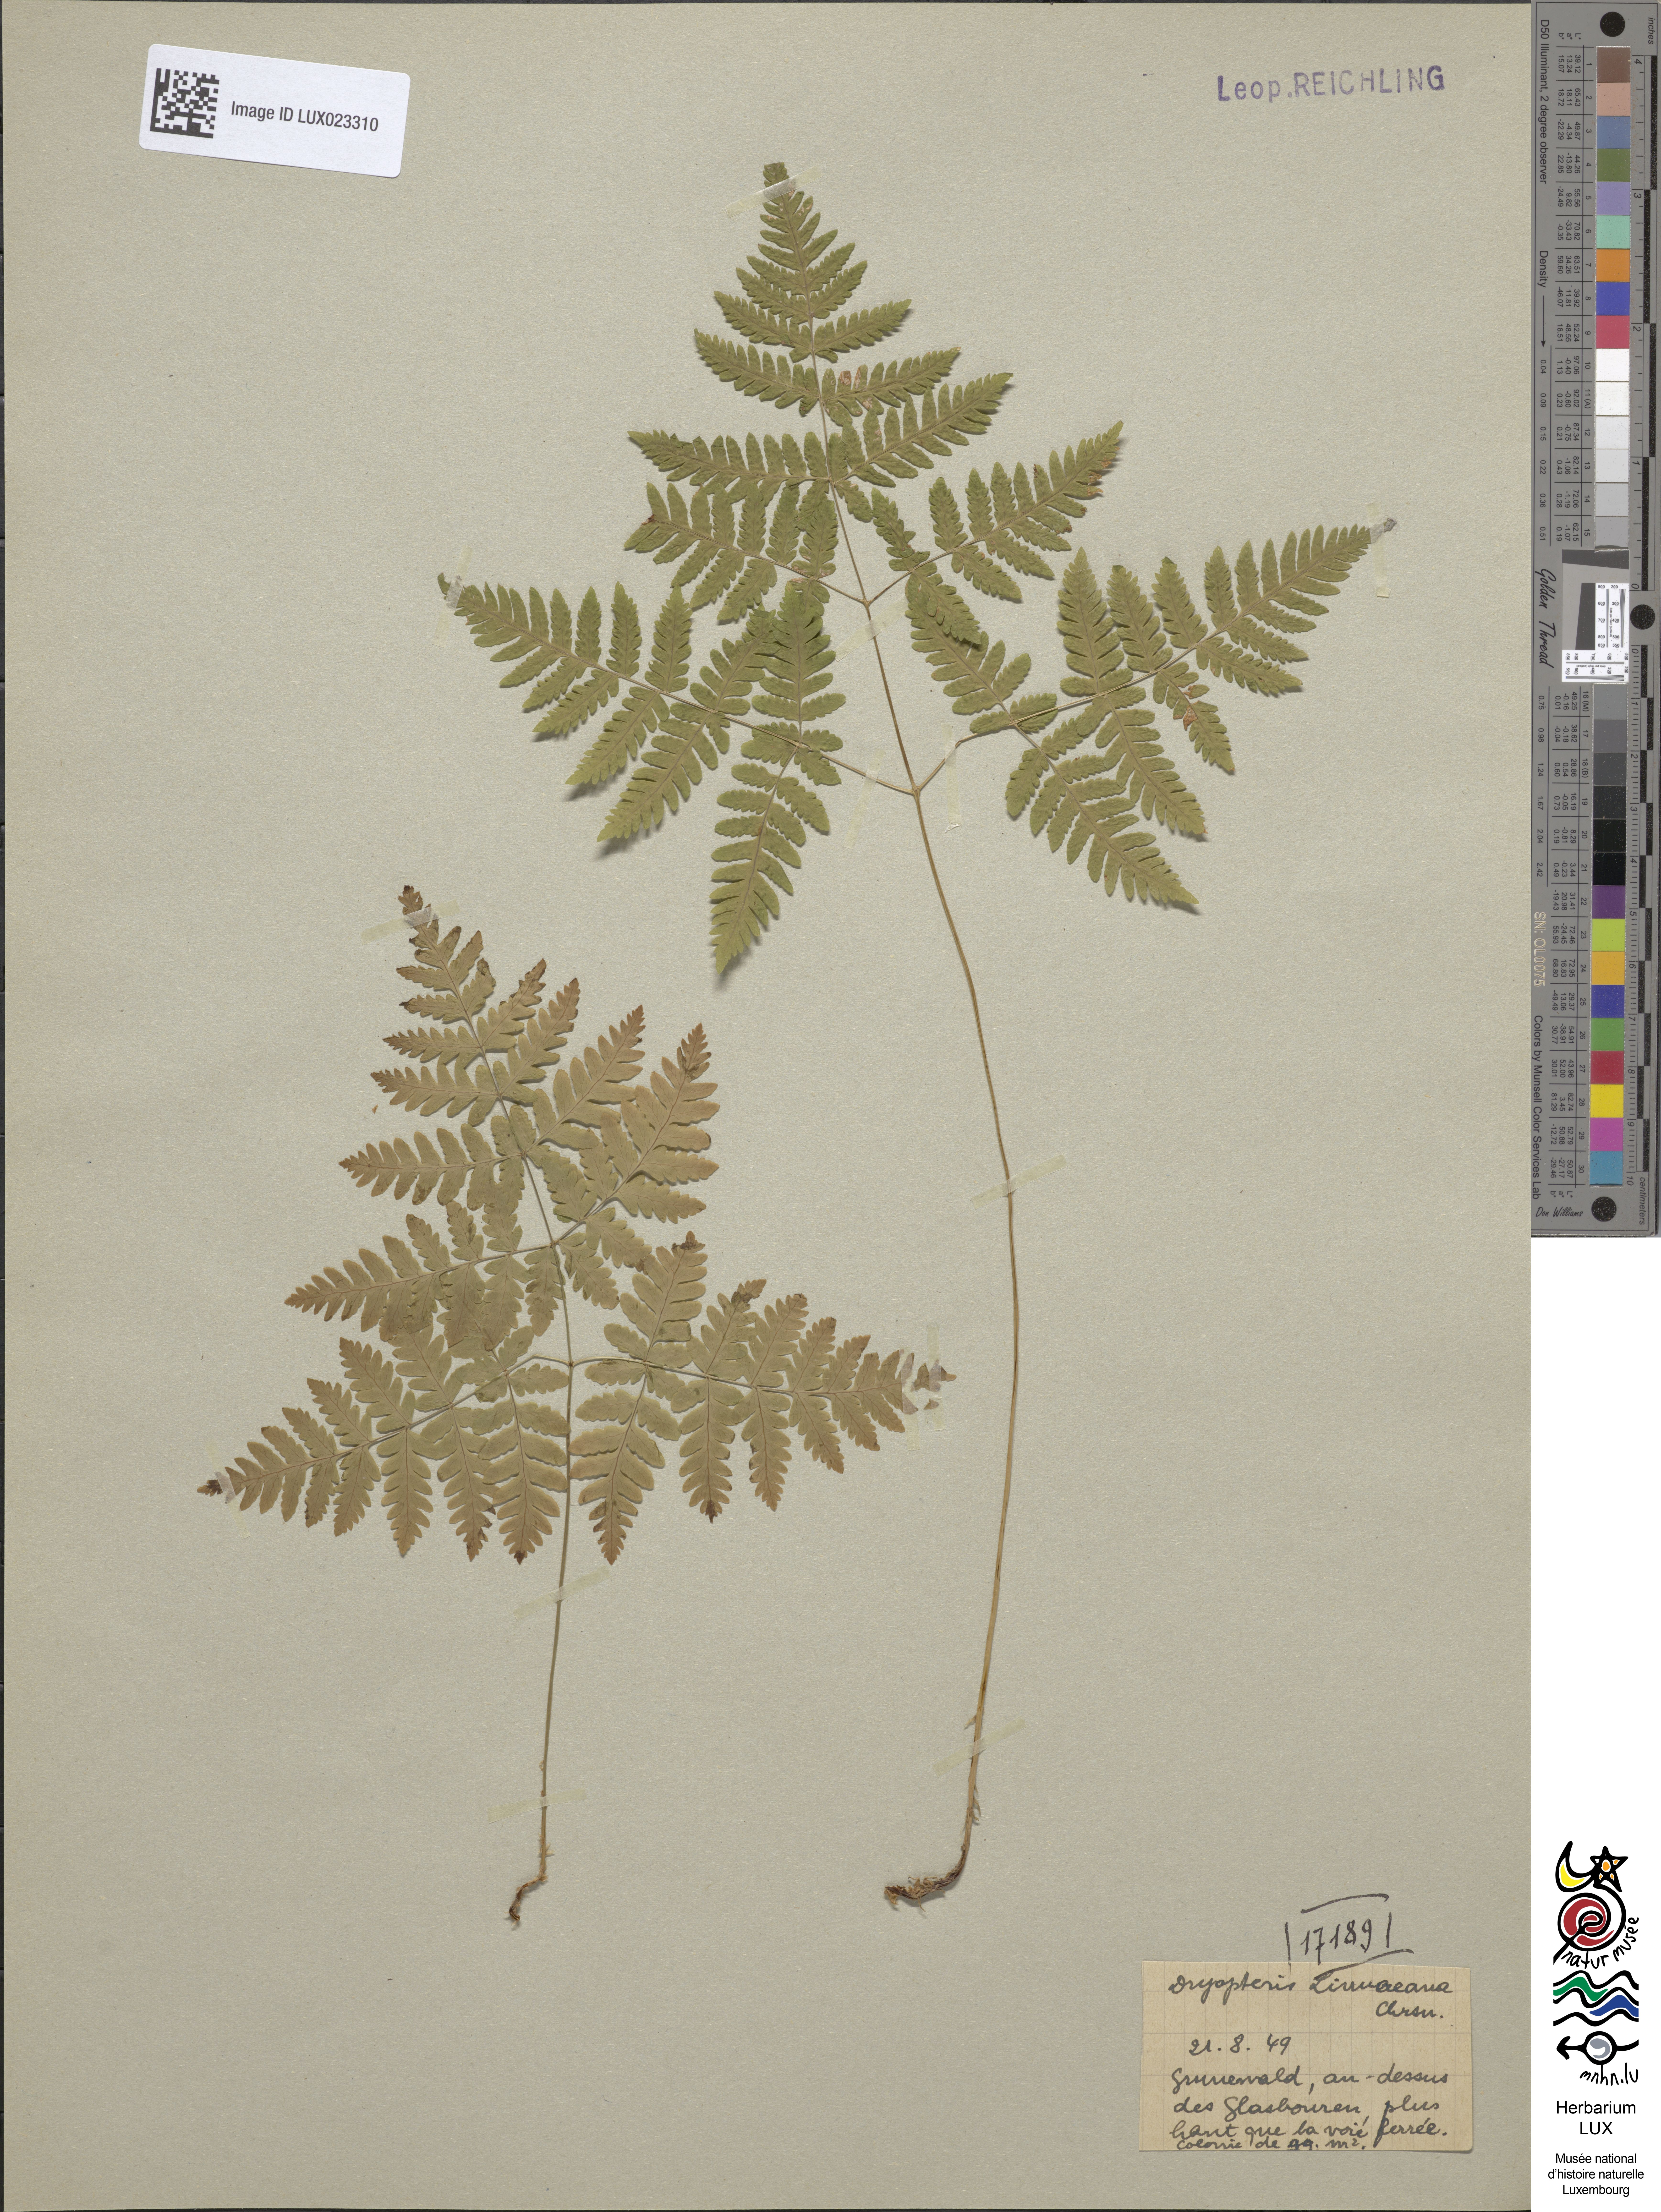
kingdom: Plantae
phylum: Tracheophyta
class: Polypodiopsida
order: Polypodiales
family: Cystopteridaceae
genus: Gymnocarpium
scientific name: Gymnocarpium dryopteris
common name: Oak fern
